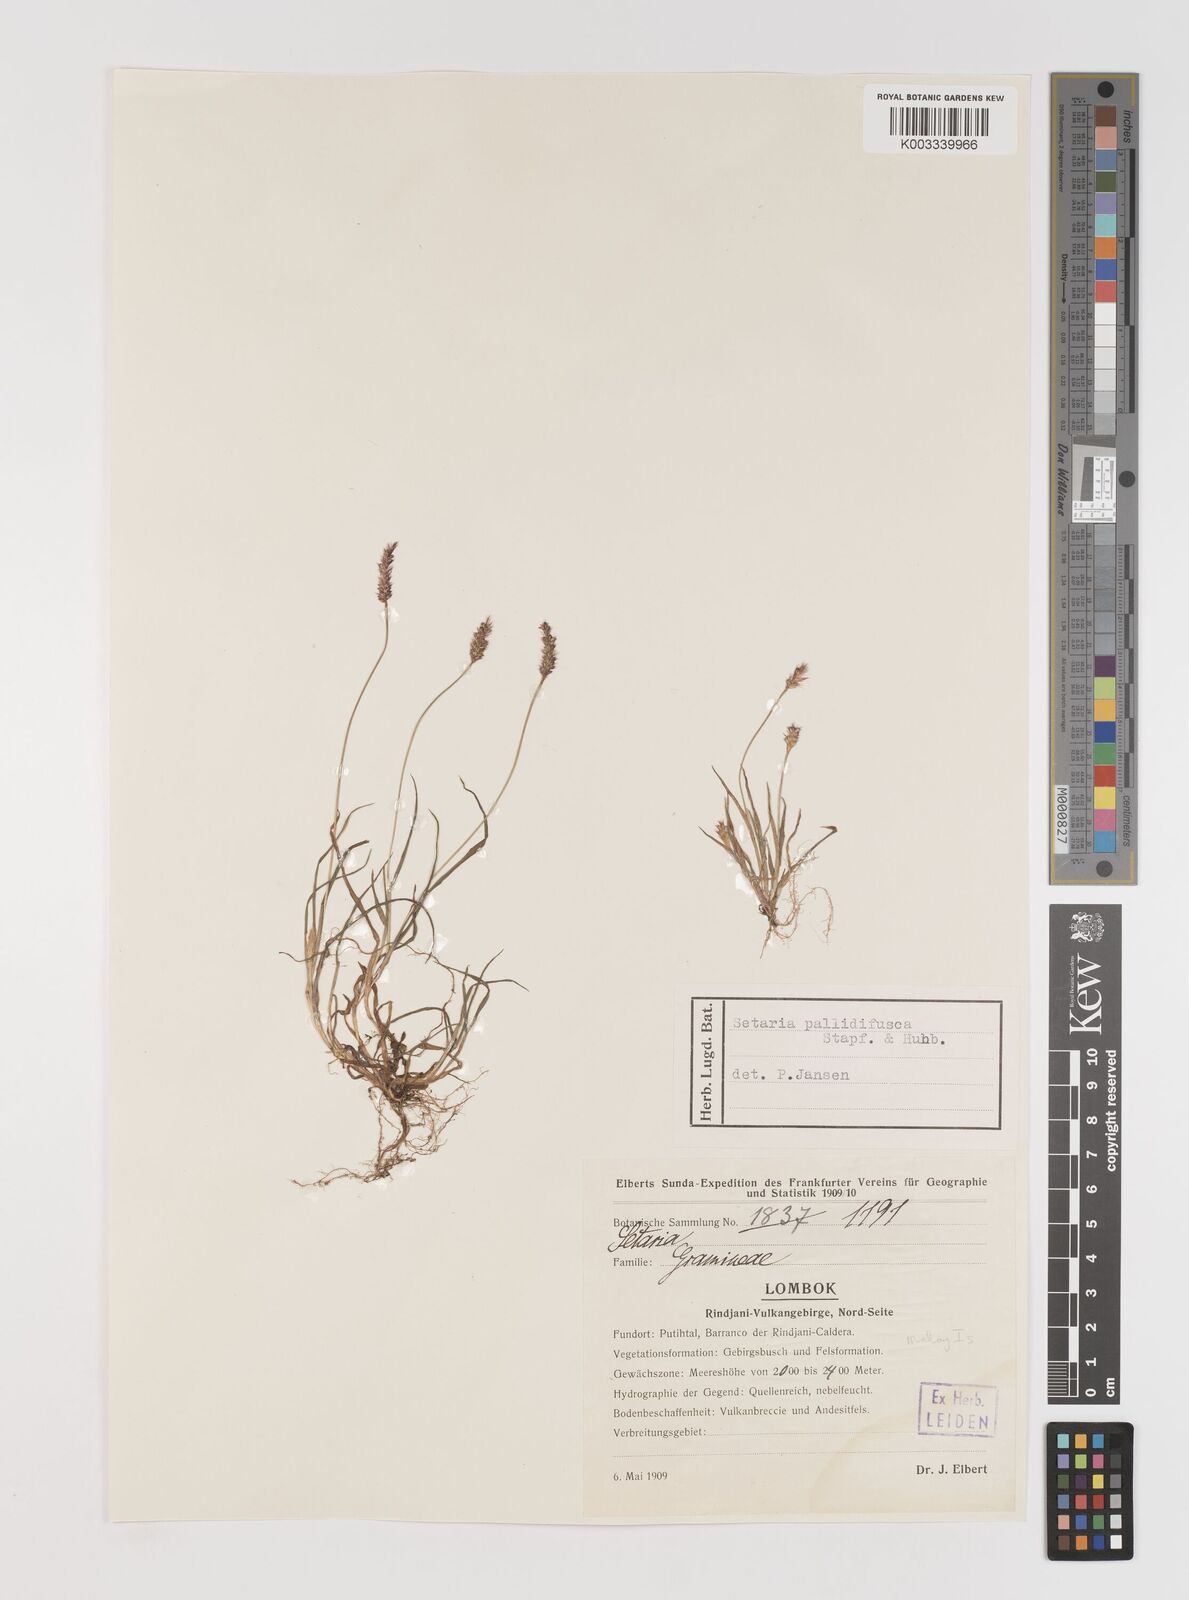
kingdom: Plantae
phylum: Tracheophyta
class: Liliopsida
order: Poales
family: Poaceae
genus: Setaria
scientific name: Setaria parviflora
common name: Knotroot bristle-grass
